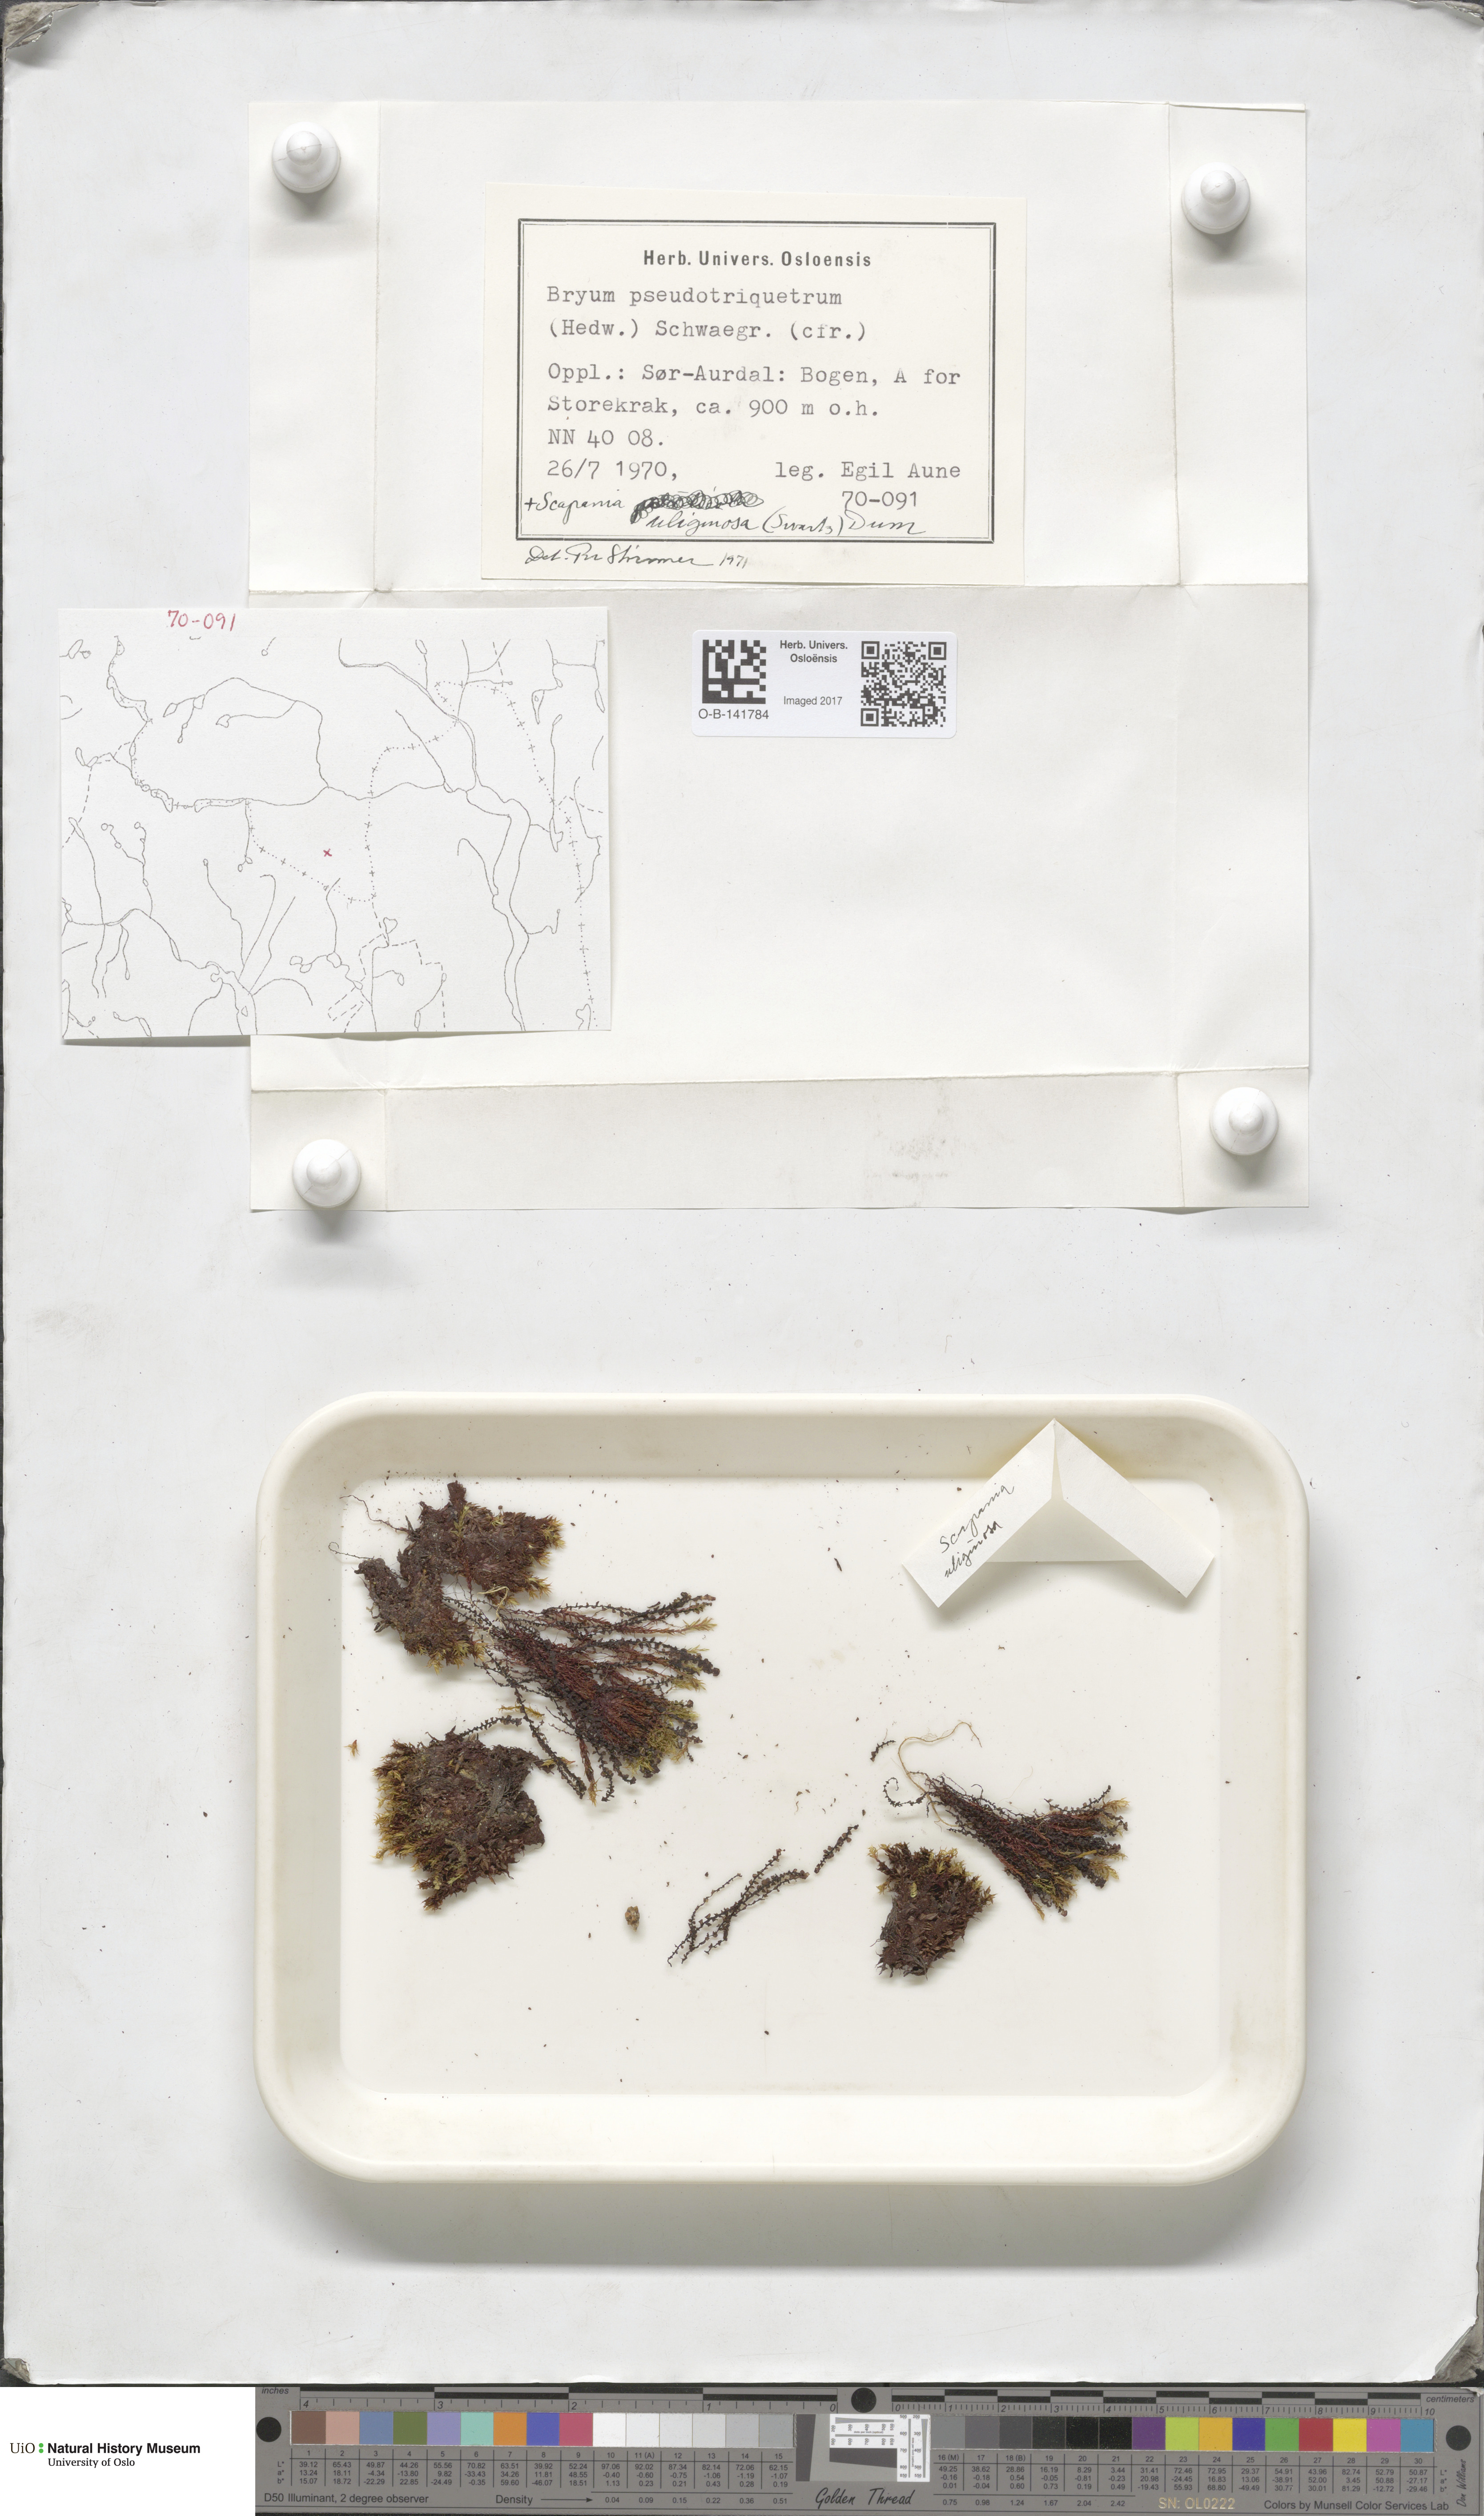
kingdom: Plantae
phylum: Bryophyta
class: Bryopsida
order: Bryales
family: Bryaceae
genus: Ptychostomum
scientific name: Ptychostomum pseudotriquetrum
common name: Long-leaved thread moss
